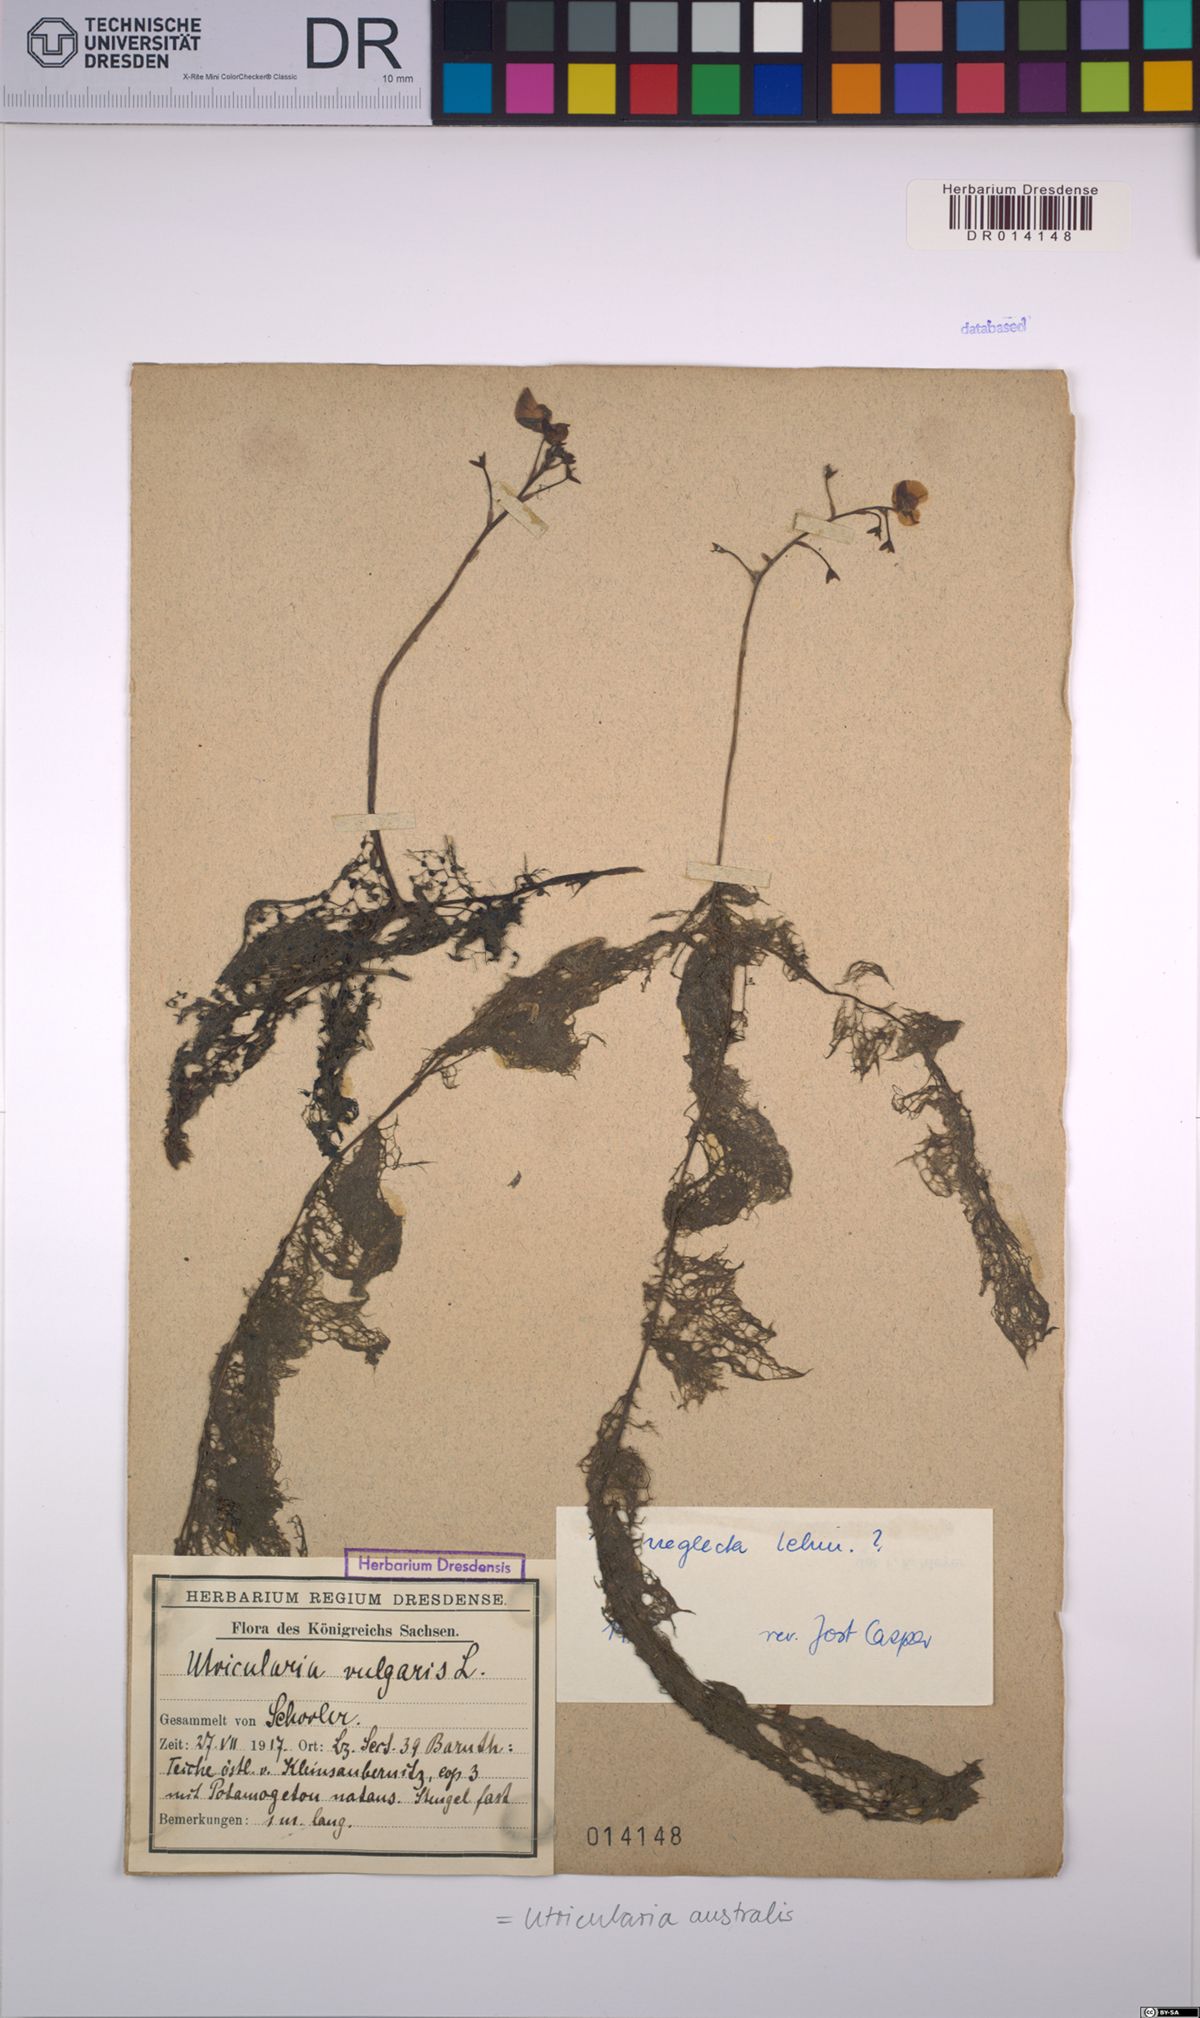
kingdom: Plantae
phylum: Tracheophyta
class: Magnoliopsida
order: Lamiales
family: Lentibulariaceae
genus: Utricularia
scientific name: Utricularia australis
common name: Bladderwort
